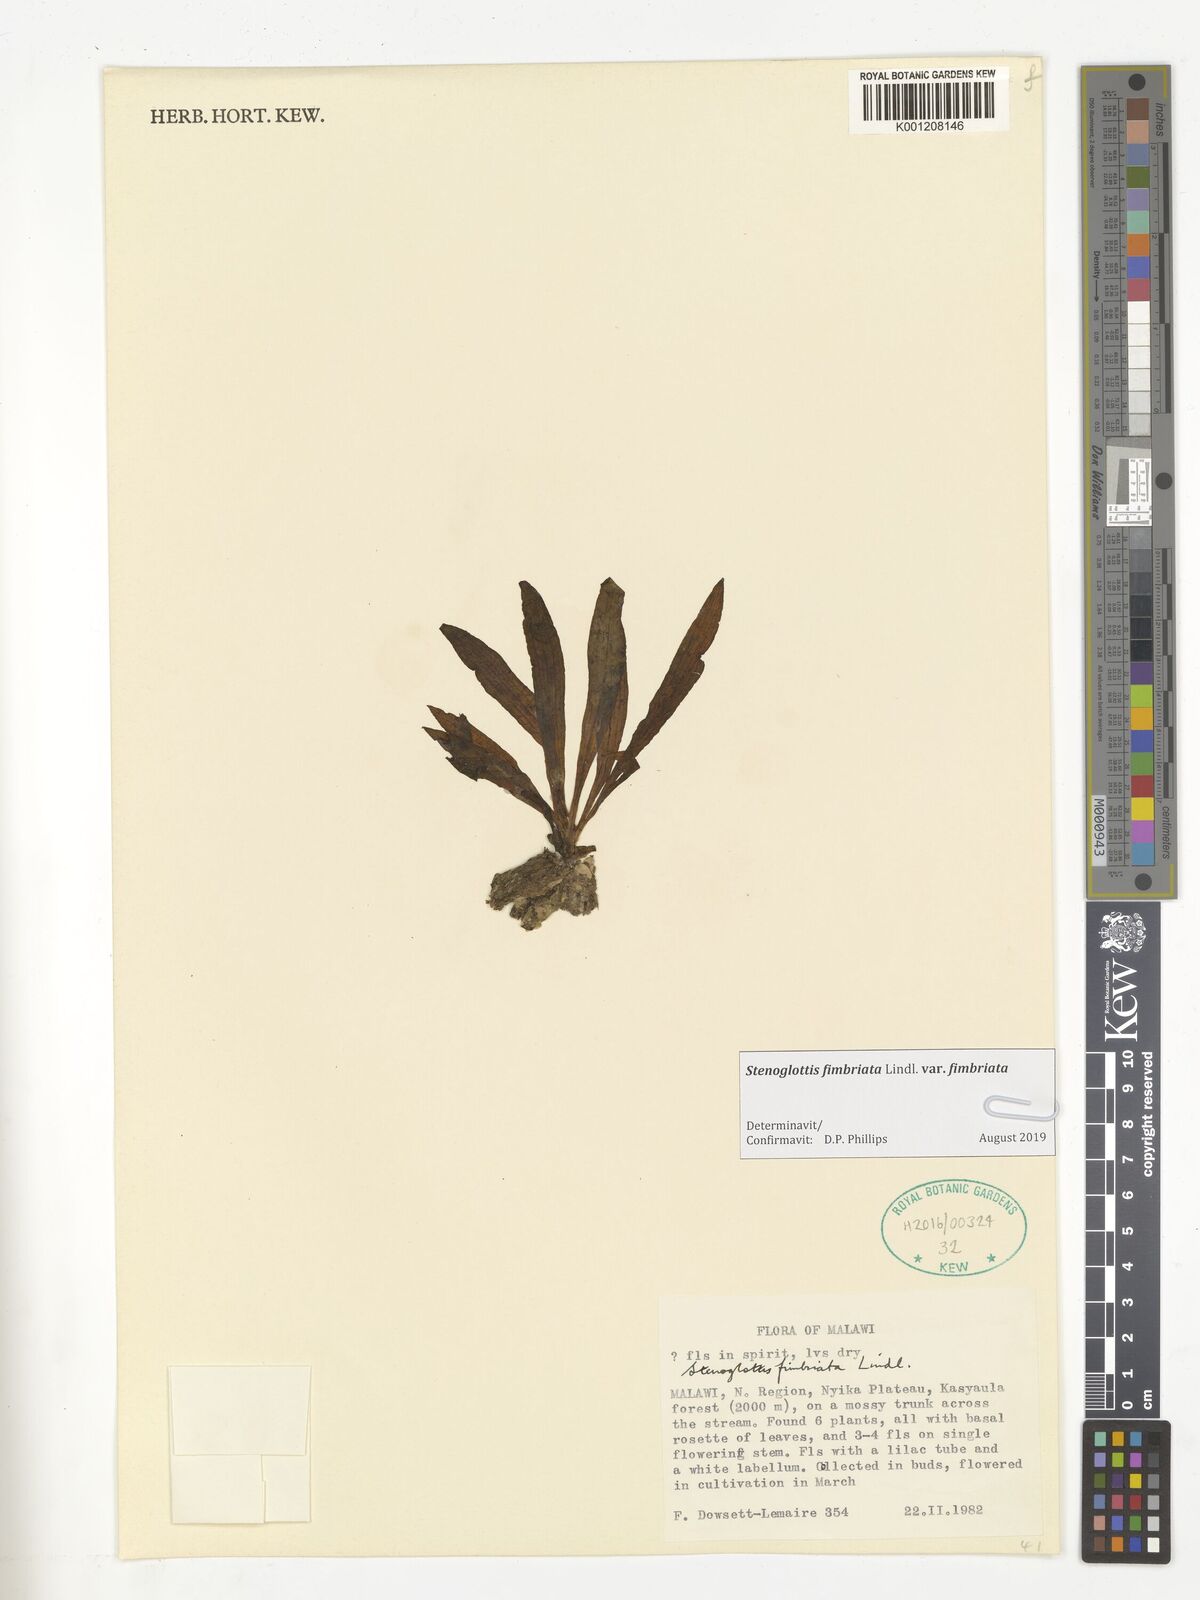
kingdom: Plantae
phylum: Tracheophyta
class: Liliopsida
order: Asparagales
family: Orchidaceae
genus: Stenoglottis
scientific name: Stenoglottis fimbriata
